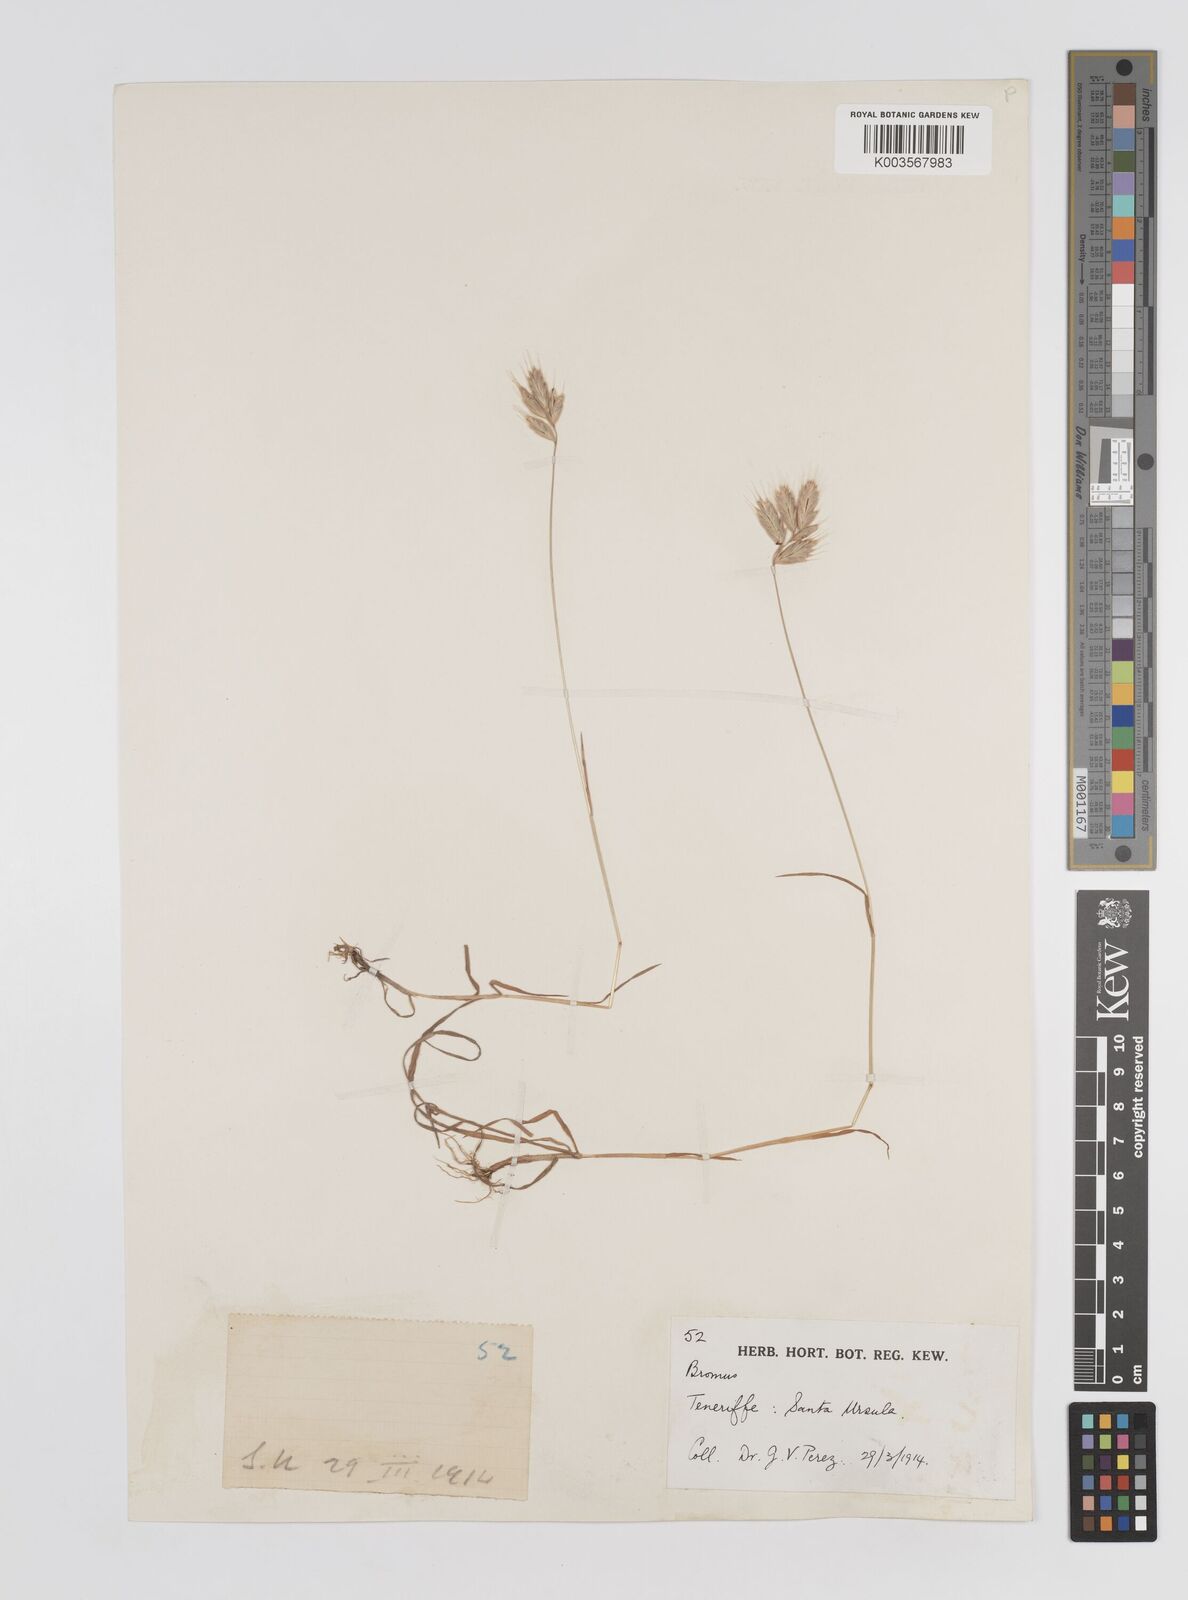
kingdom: Plantae
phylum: Tracheophyta
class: Liliopsida
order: Poales
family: Poaceae
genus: Bromus
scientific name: Bromus
